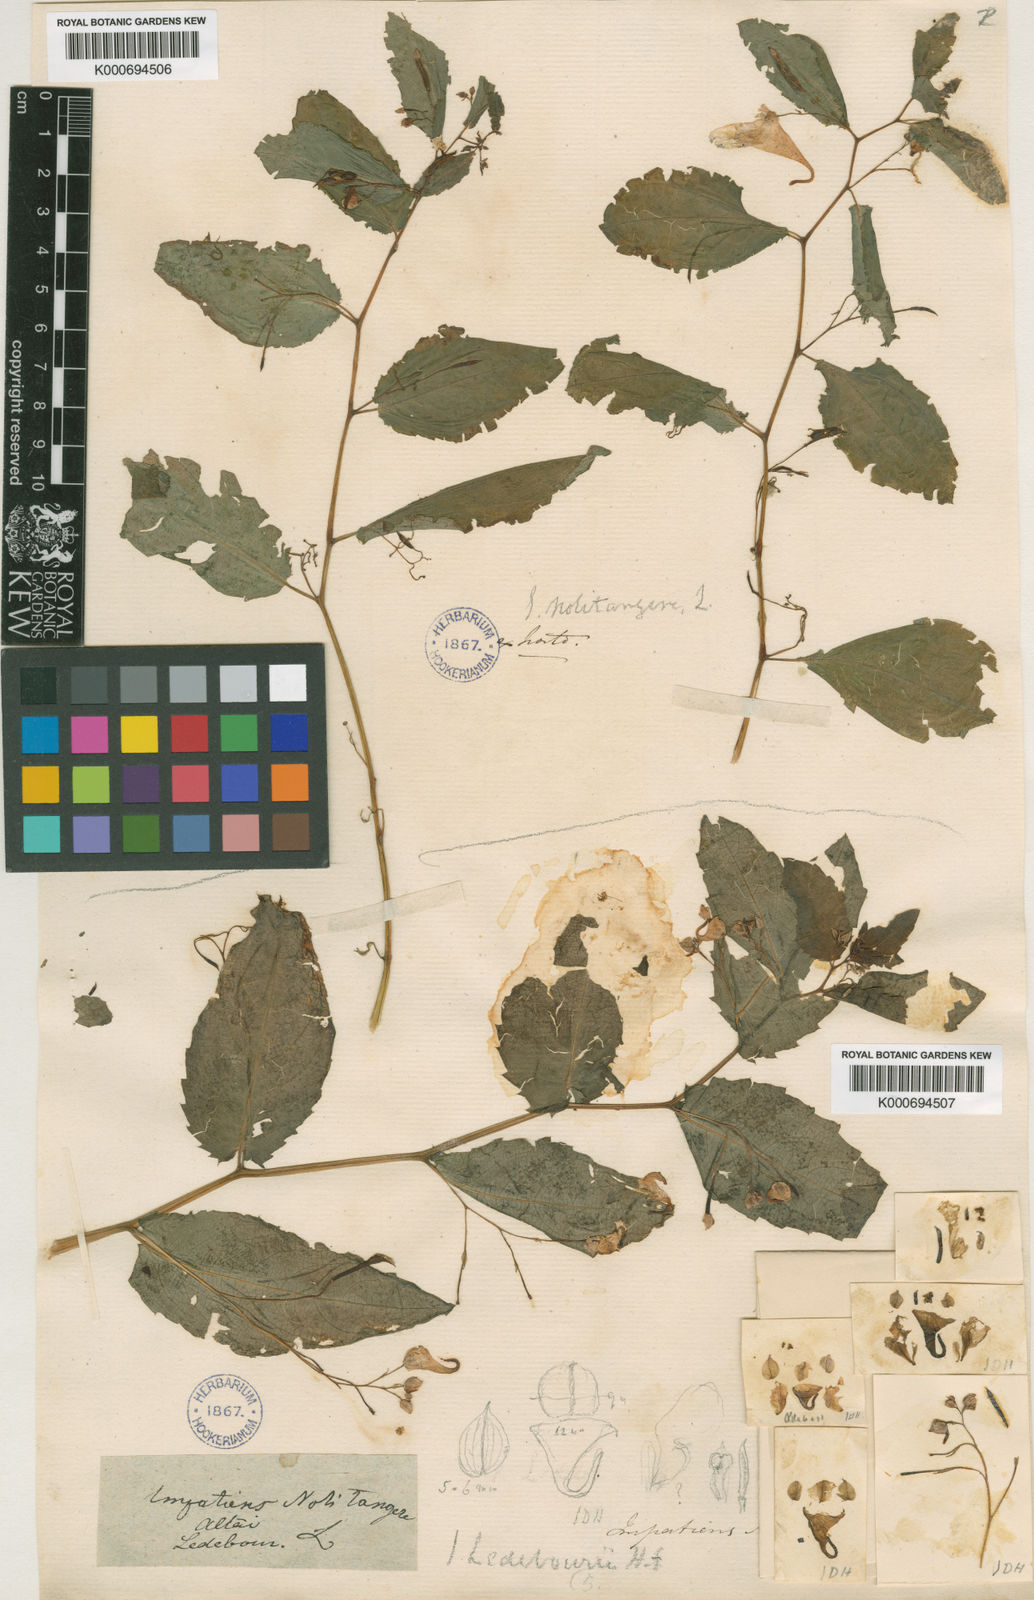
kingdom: Plantae
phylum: Tracheophyta
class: Magnoliopsida
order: Ericales
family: Balsaminaceae
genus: Impatiens
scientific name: Impatiens
